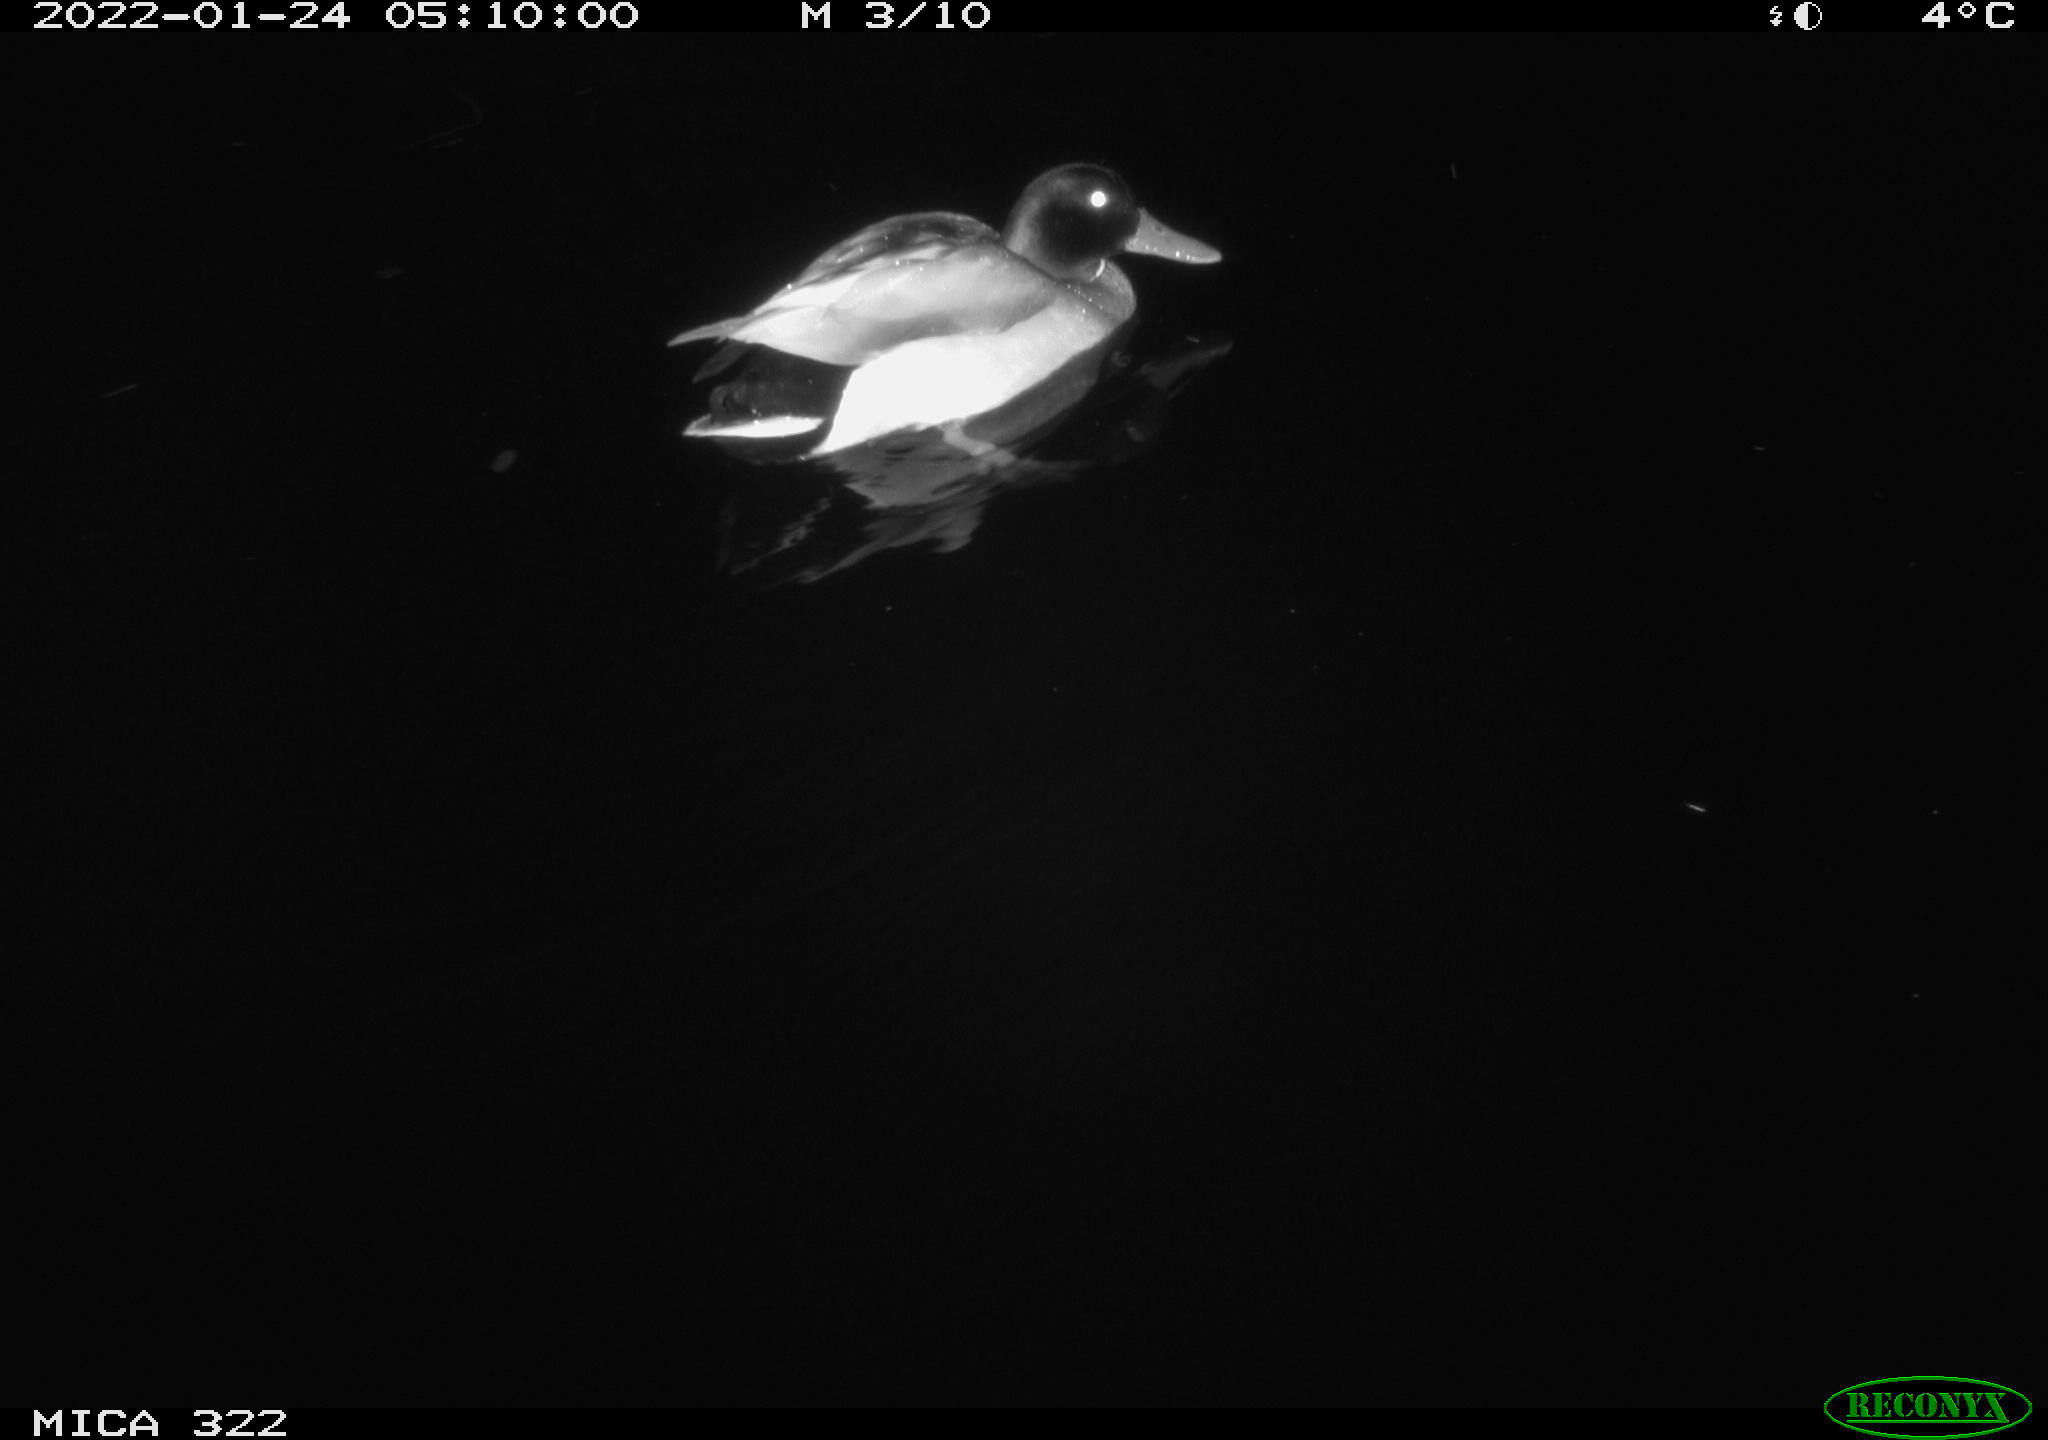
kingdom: Animalia
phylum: Chordata
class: Aves
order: Anseriformes
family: Anatidae
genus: Anas
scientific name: Anas
